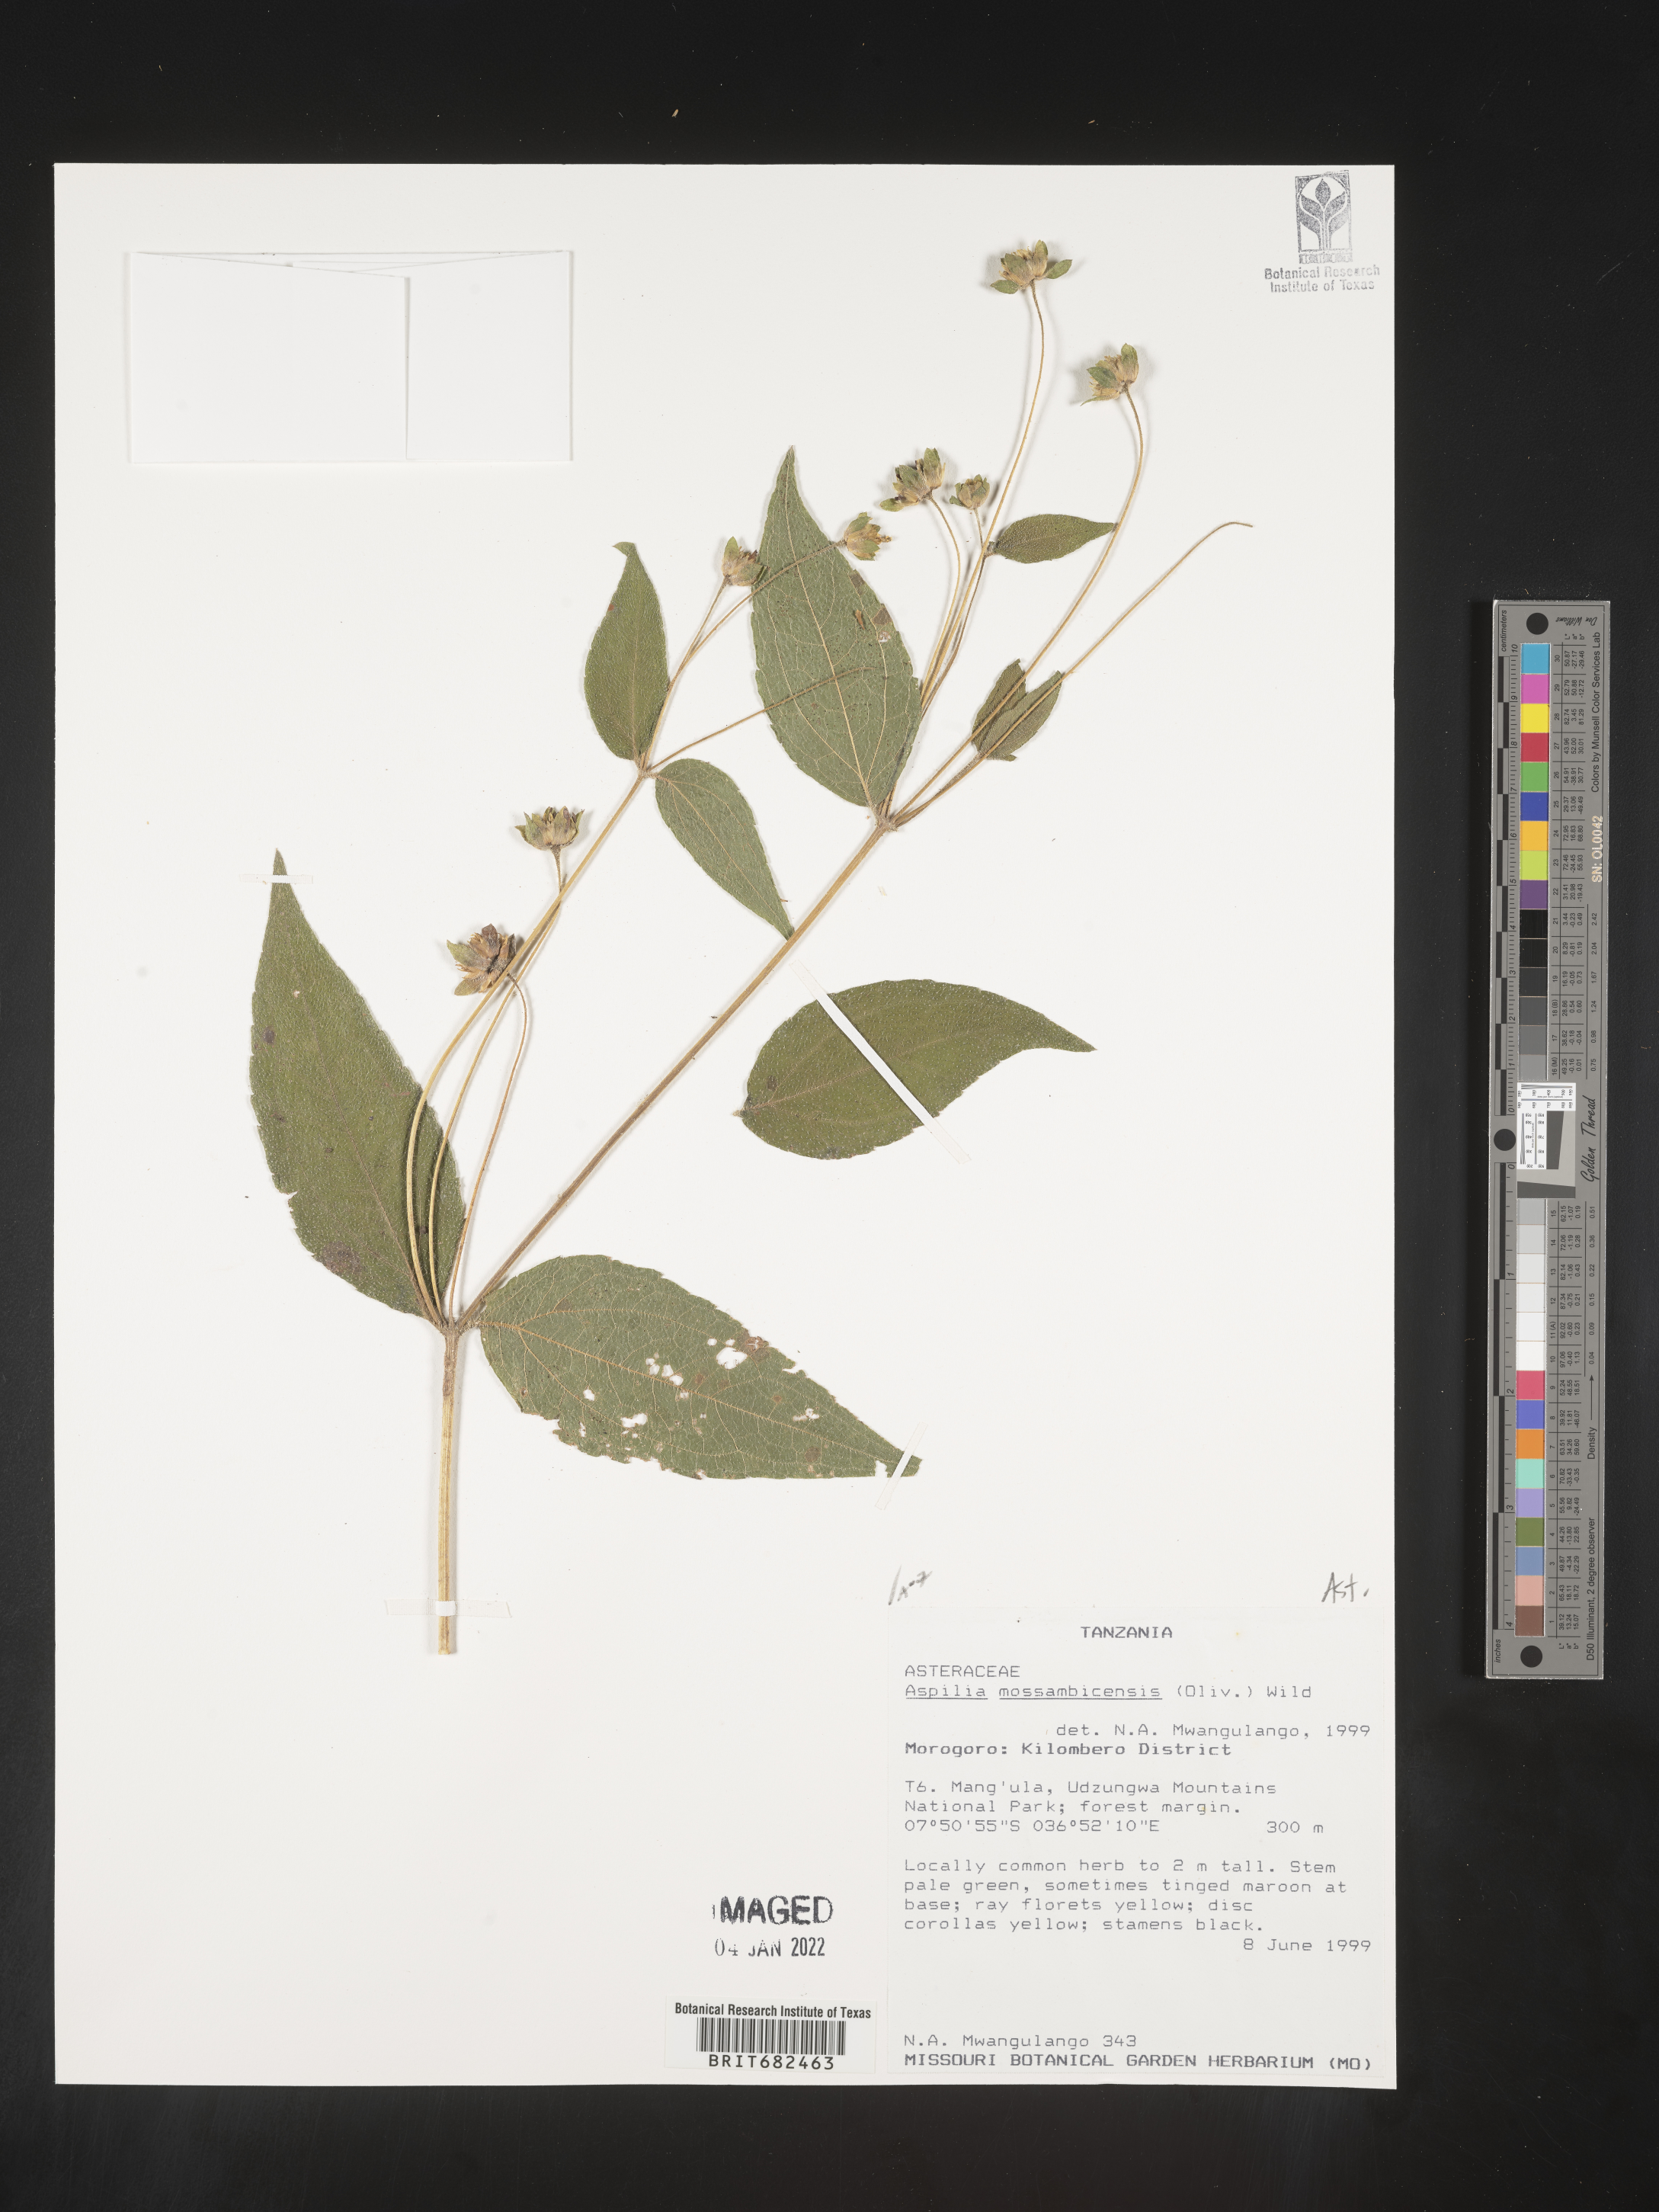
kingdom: Plantae
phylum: Tracheophyta
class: Magnoliopsida
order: Asterales
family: Asteraceae
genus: Aspilia
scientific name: Aspilia
